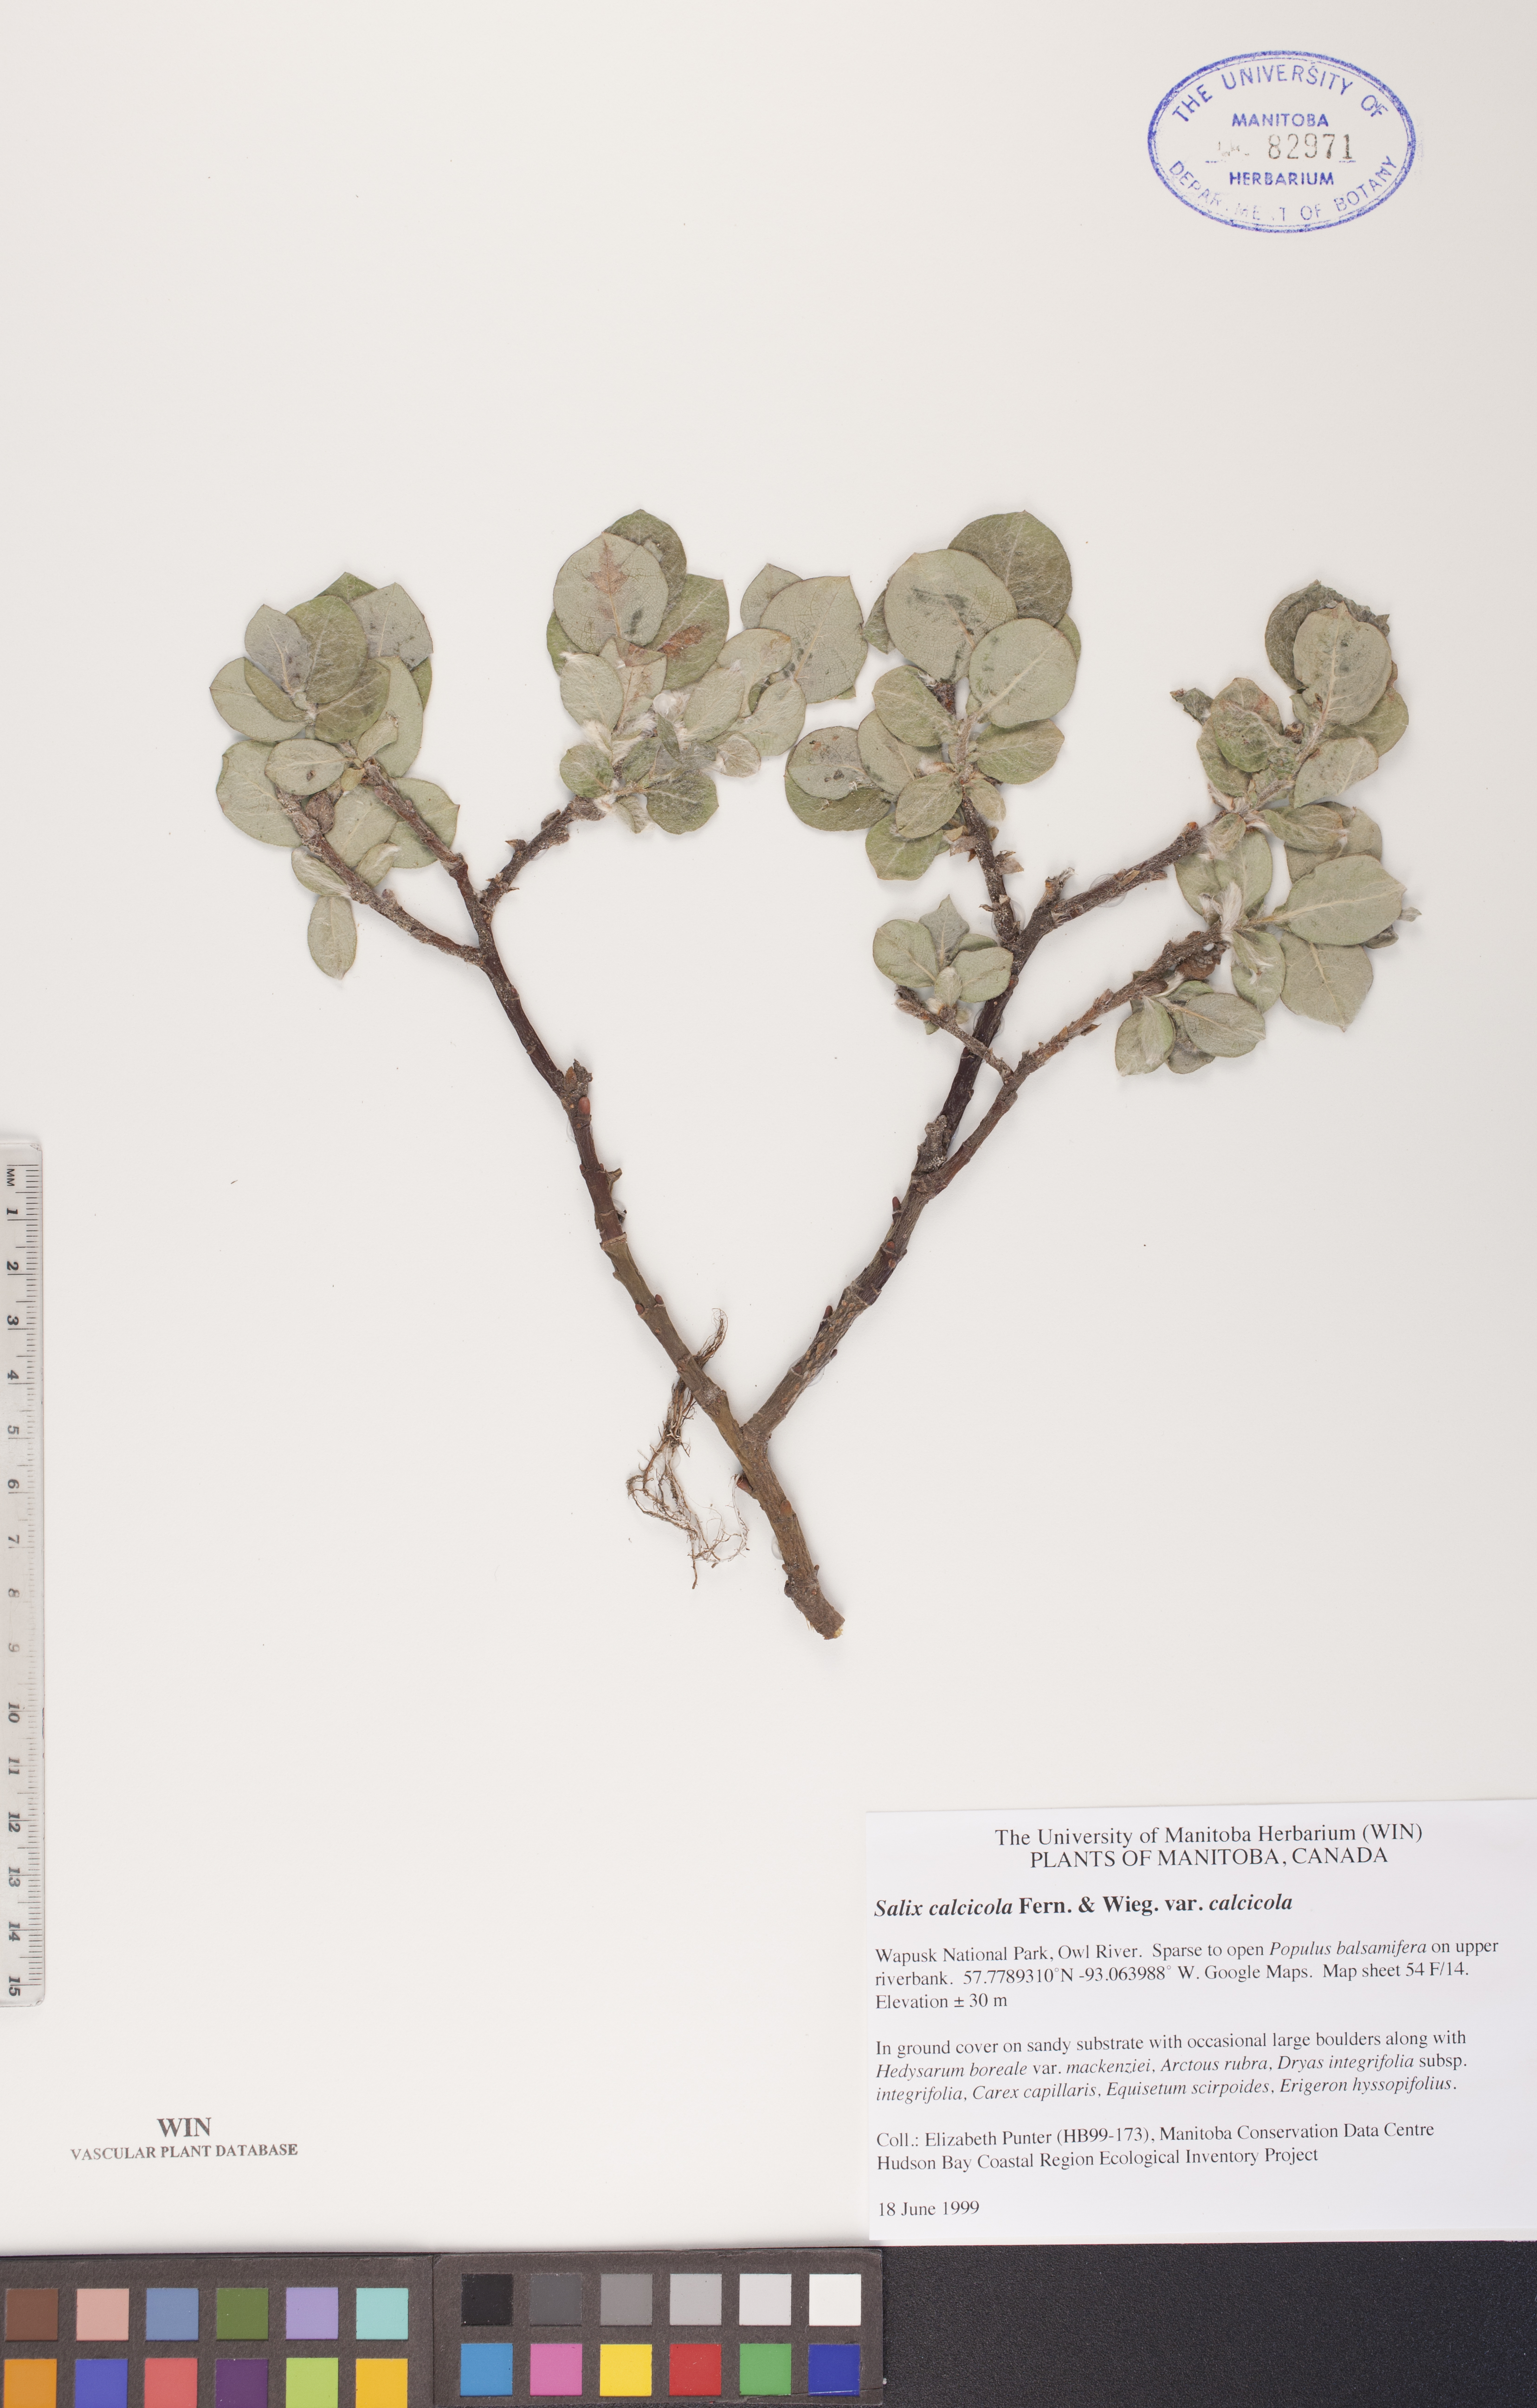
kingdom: Plantae
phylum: Tracheophyta
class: Magnoliopsida
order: Malpighiales
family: Salicaceae
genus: Salix
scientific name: Salix calcicola
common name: Calcareous willow
